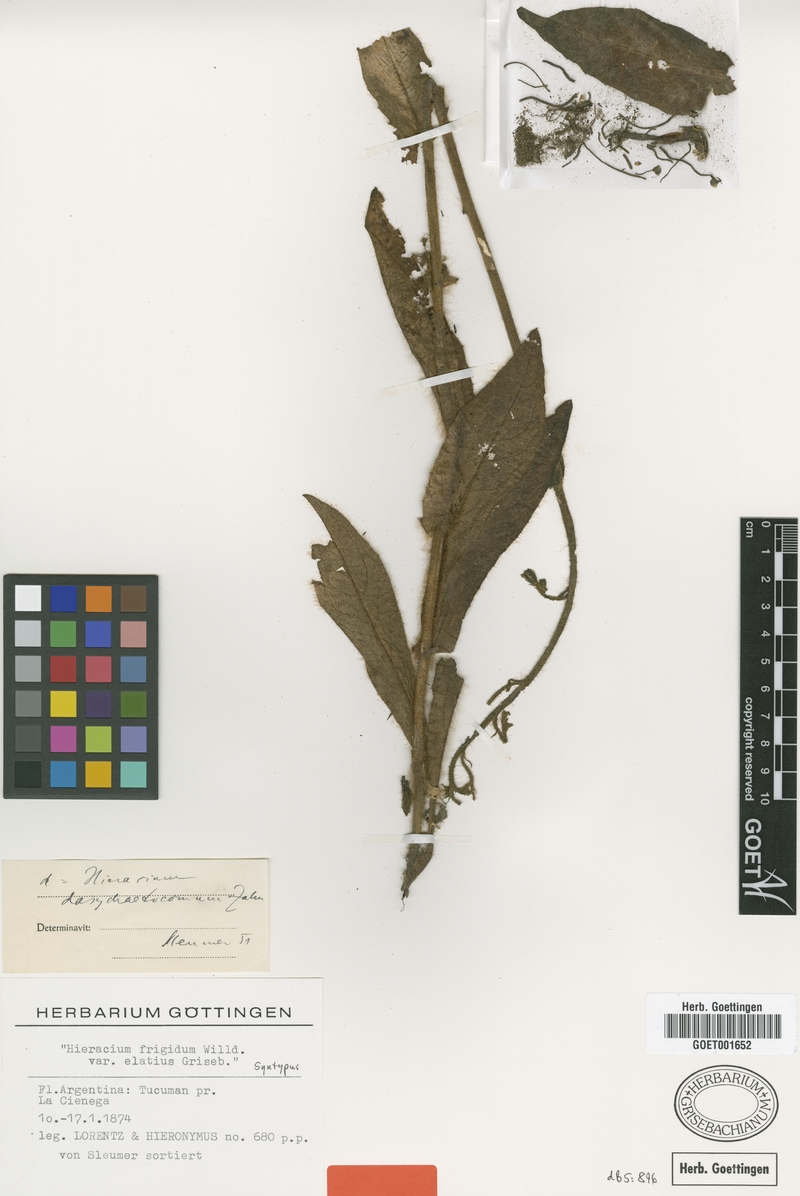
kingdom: Plantae
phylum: Tracheophyta
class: Magnoliopsida
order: Asterales
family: Asteraceae
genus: Hieracium
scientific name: Hieracium dasychaetocomum
